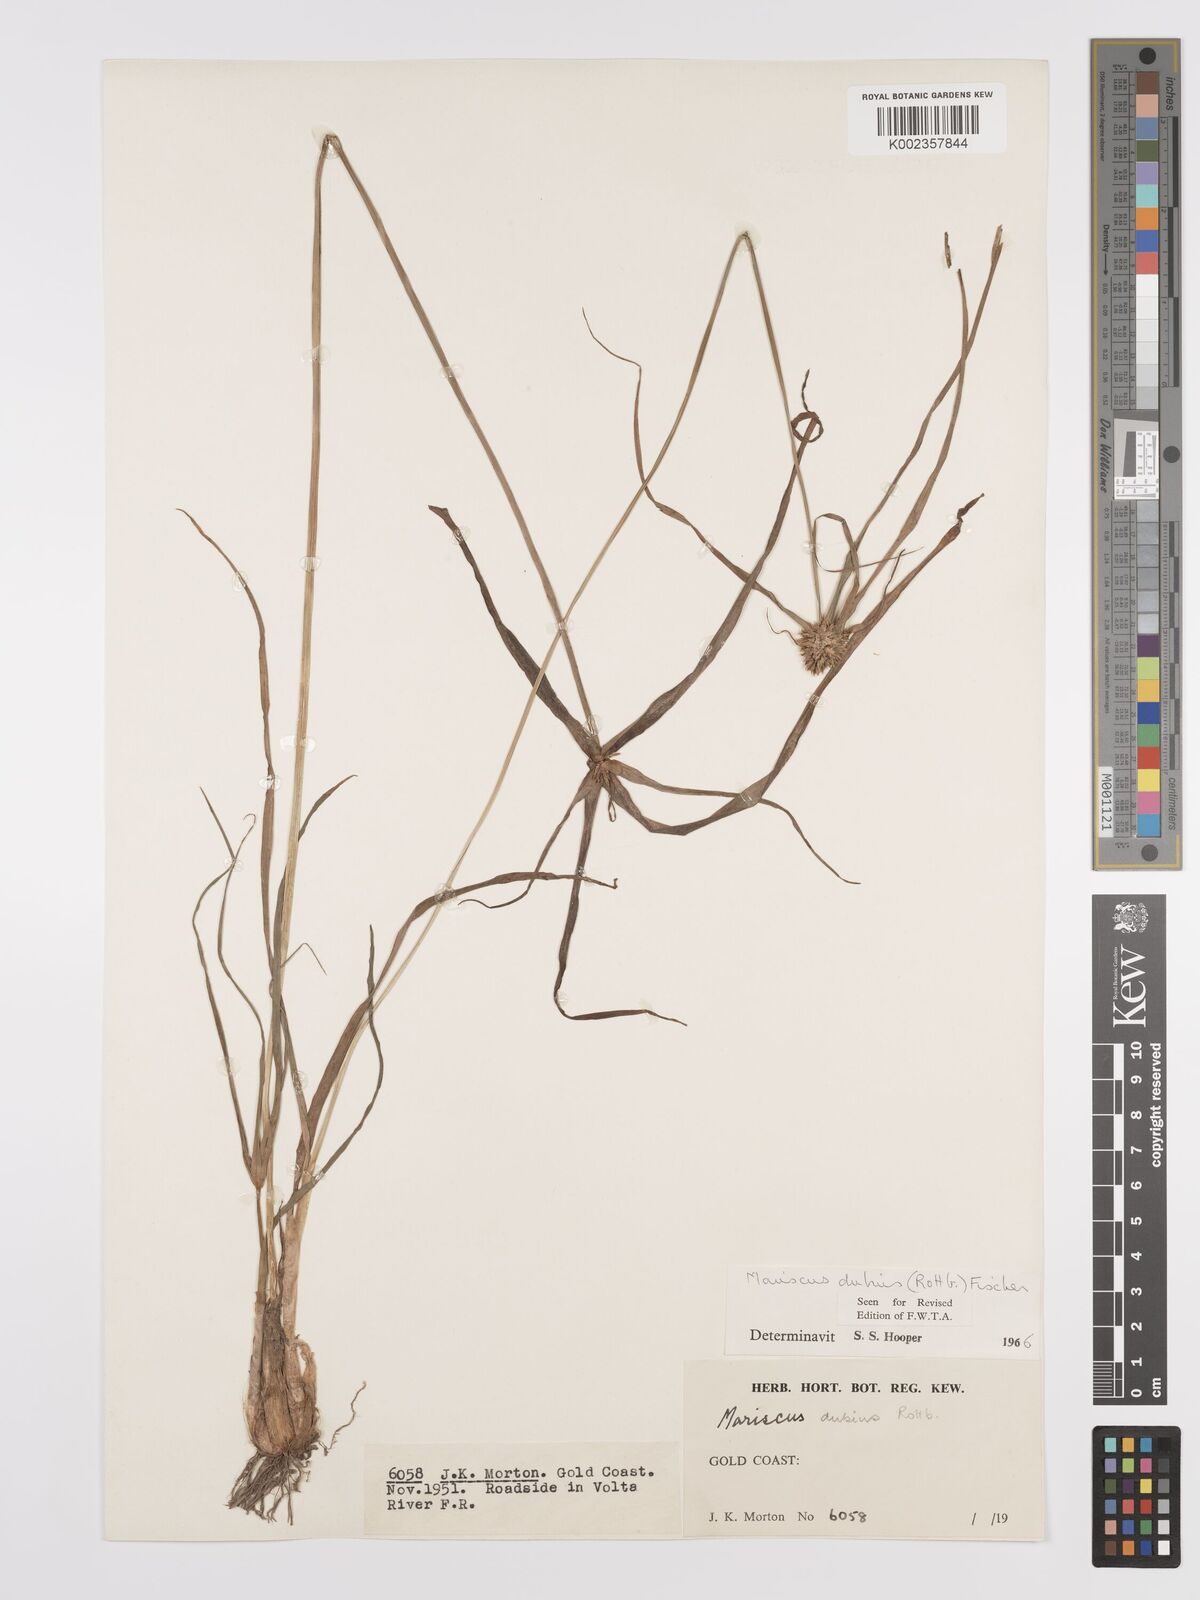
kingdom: Plantae
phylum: Tracheophyta
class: Liliopsida
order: Poales
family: Cyperaceae
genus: Cyperus
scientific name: Cyperus dubius
